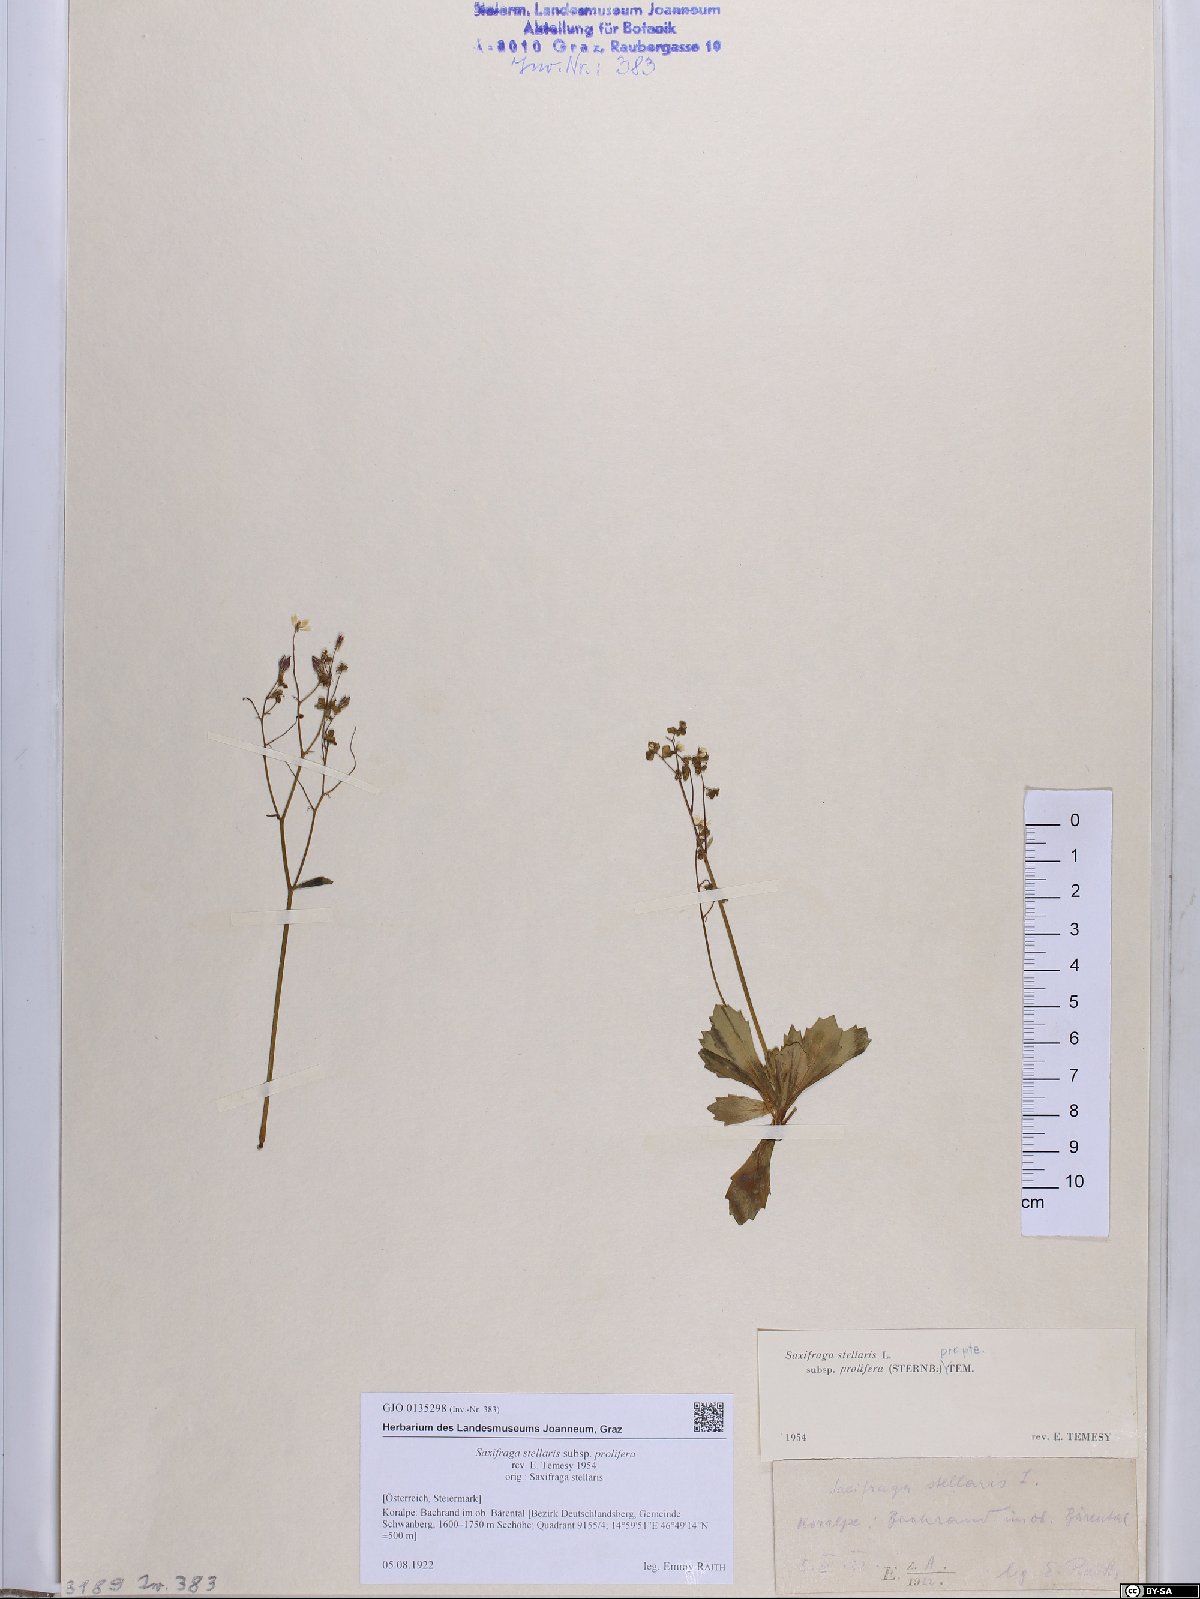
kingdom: Plantae
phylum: Tracheophyta
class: Magnoliopsida
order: Saxifragales
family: Saxifragaceae
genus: Micranthes
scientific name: Micranthes stellaris
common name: Starry saxifrage
